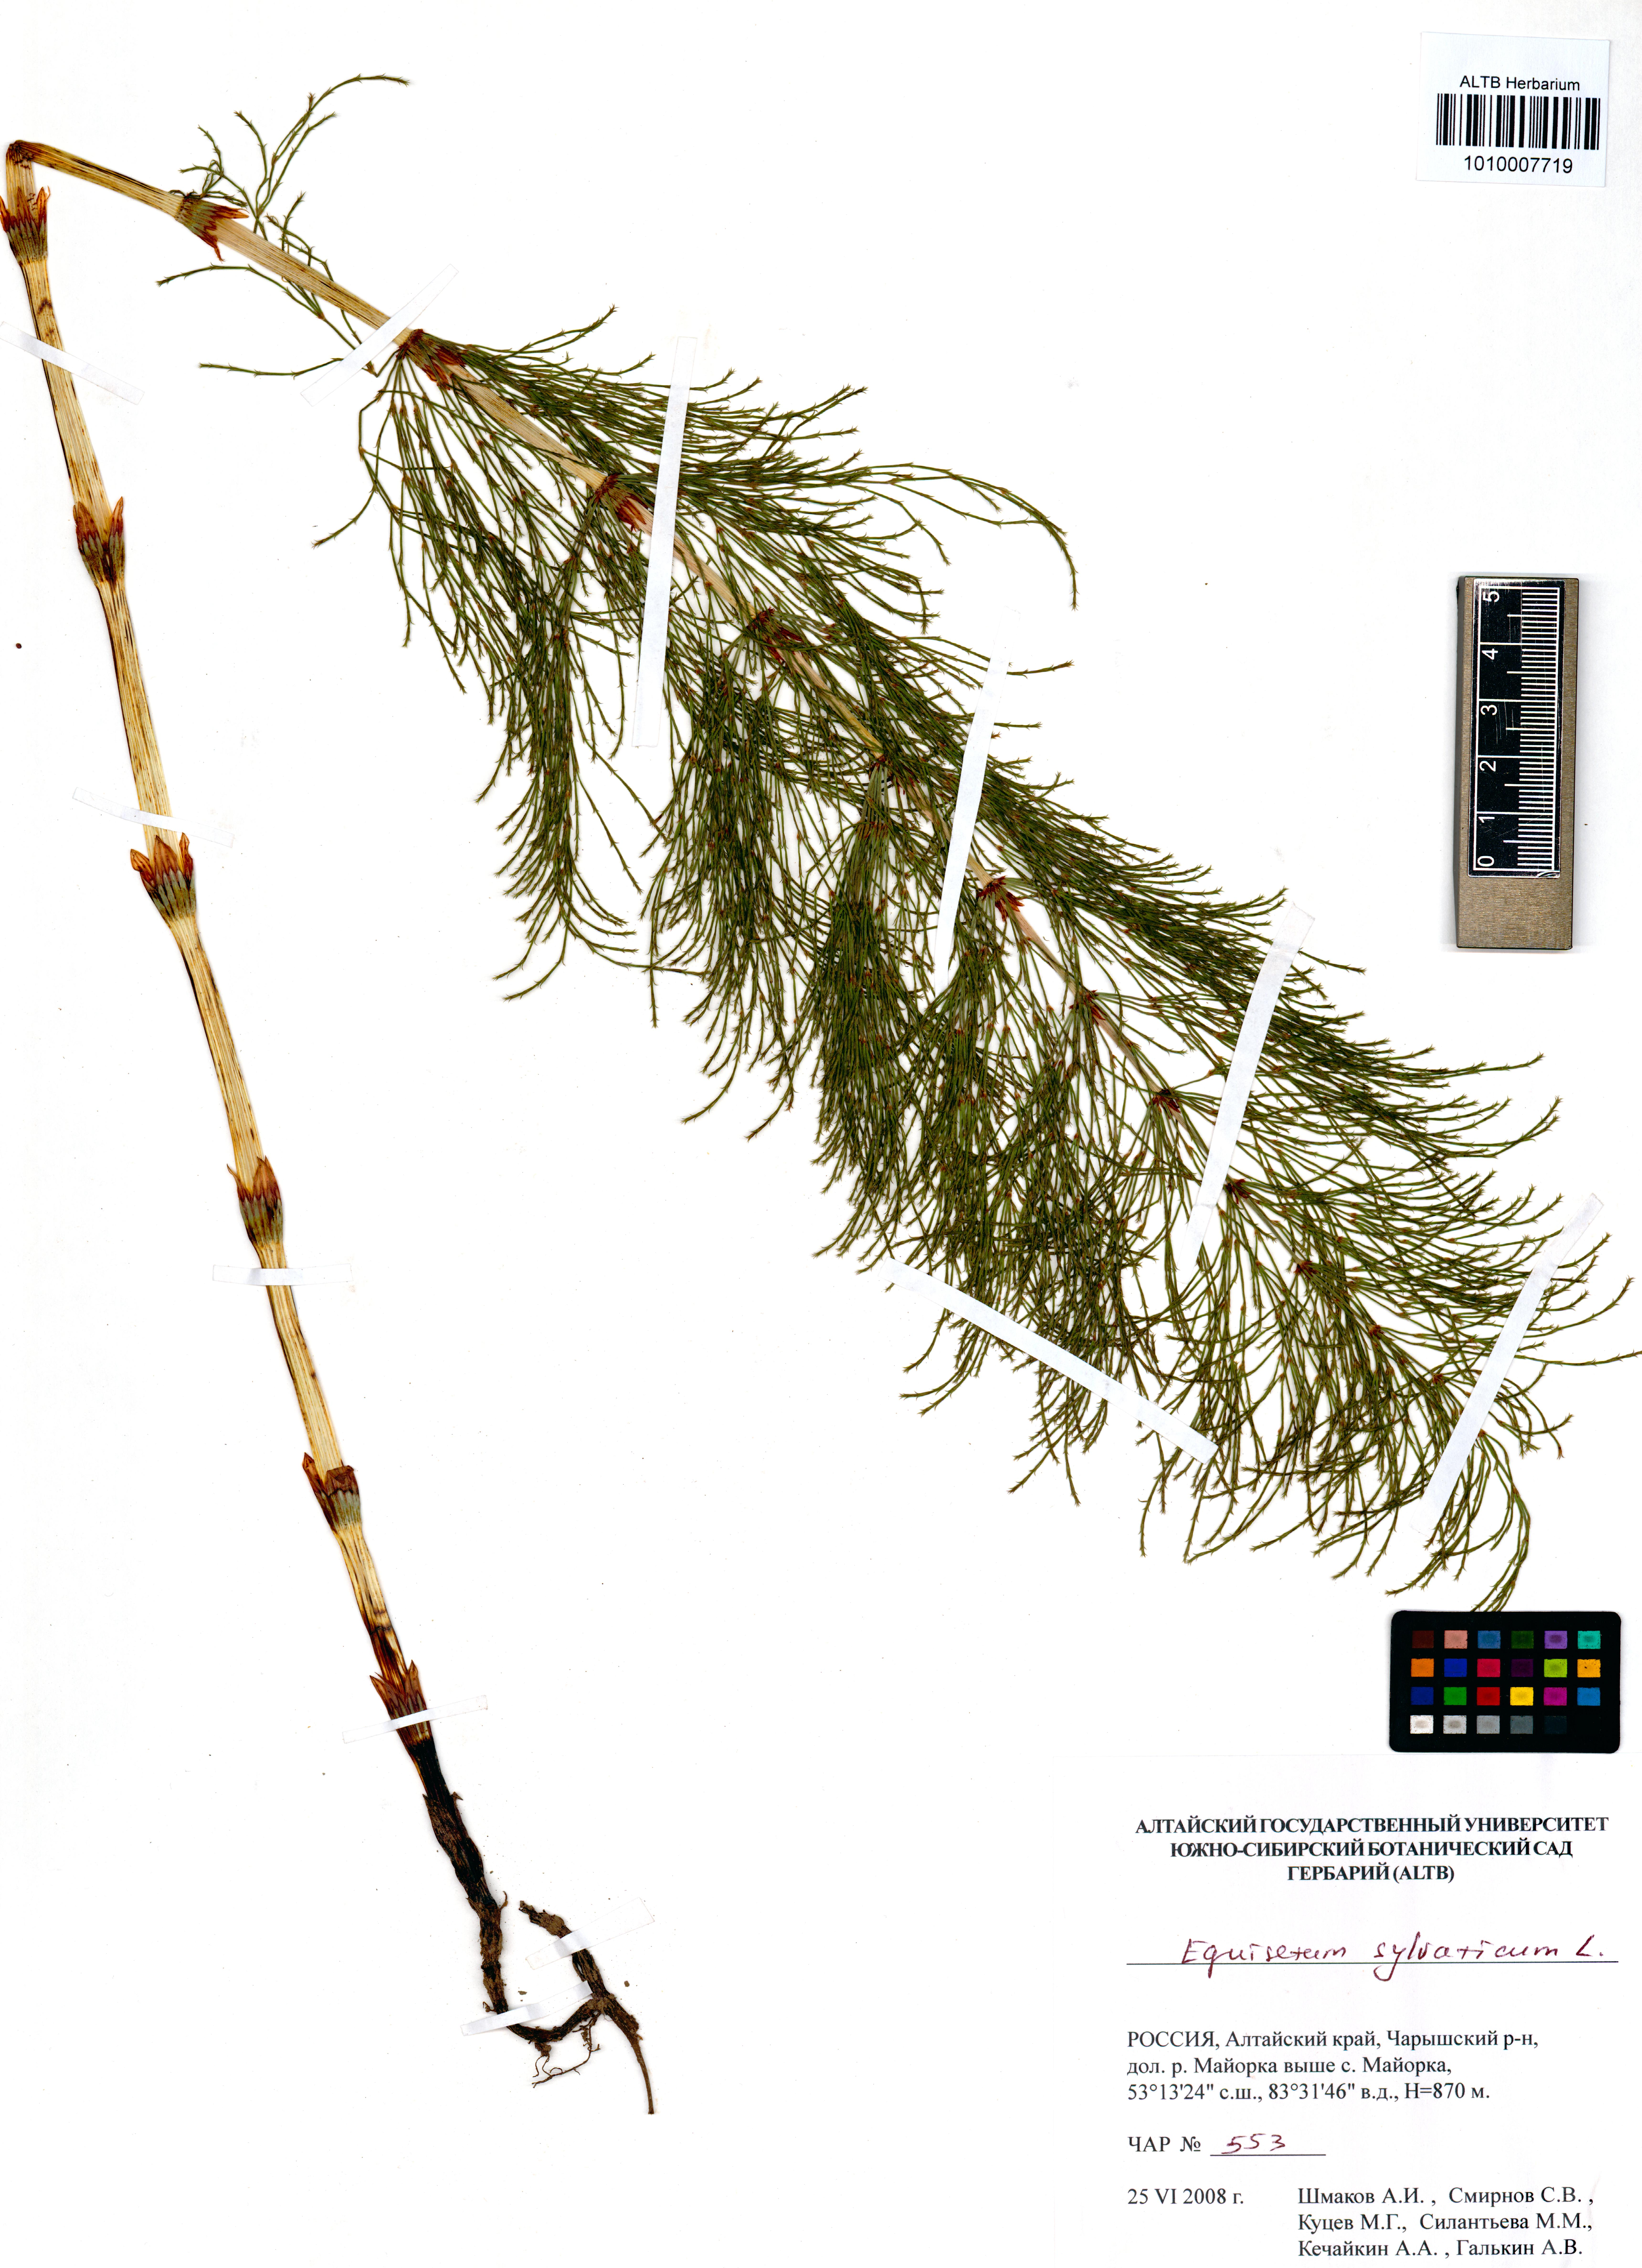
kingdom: Plantae
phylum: Tracheophyta
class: Polypodiopsida
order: Equisetales
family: Equisetaceae
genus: Equisetum
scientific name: Equisetum sylvaticum
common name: Wood horsetail
